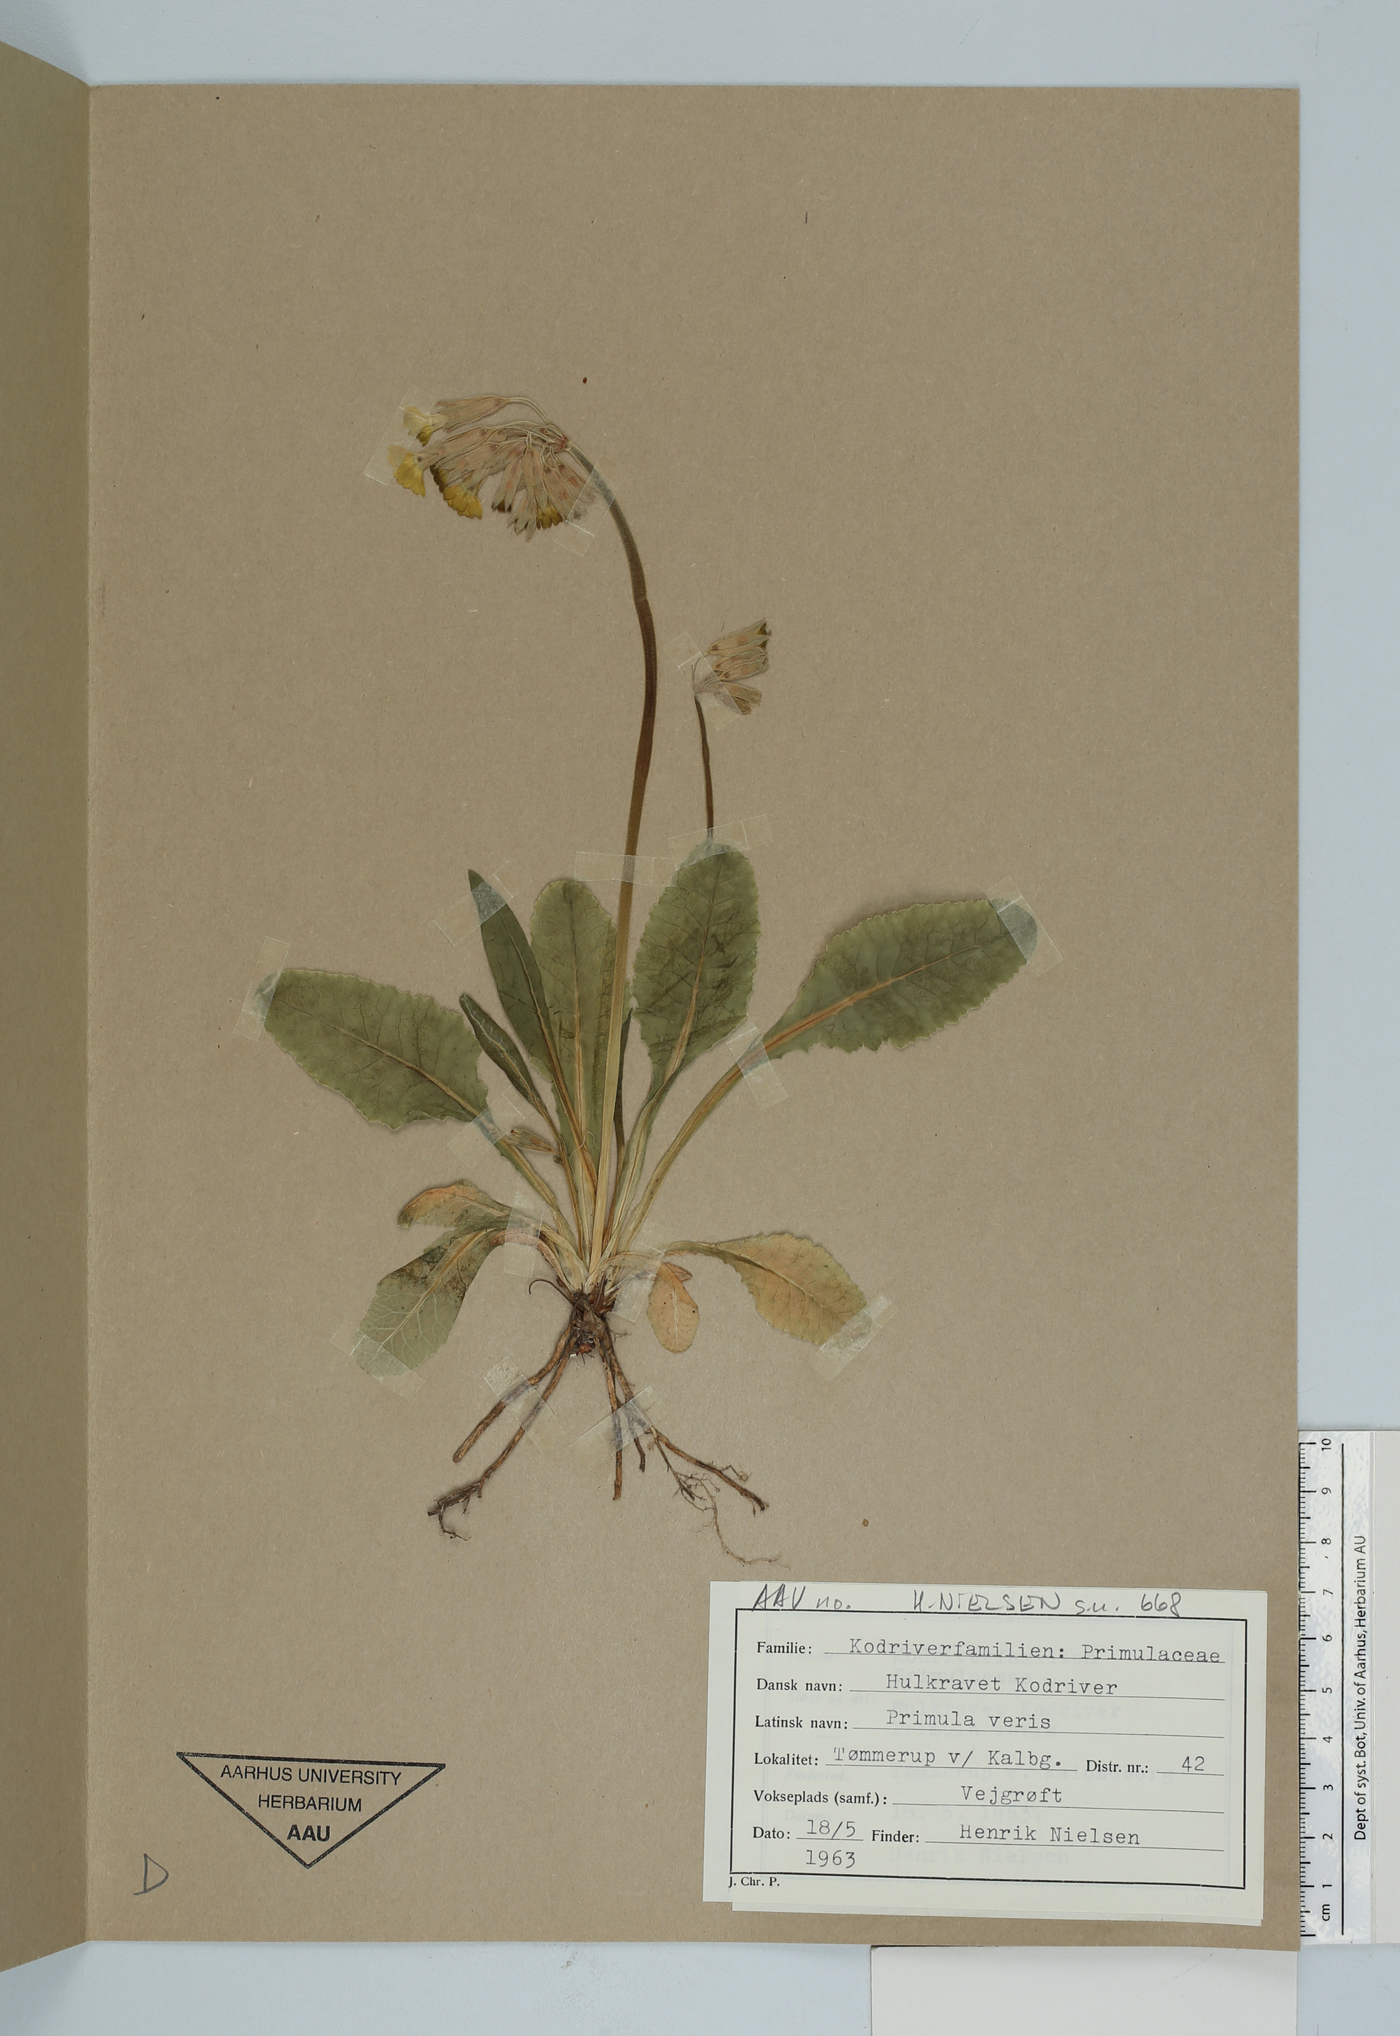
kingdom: Plantae
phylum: Tracheophyta
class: Magnoliopsida
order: Ericales
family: Primulaceae
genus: Primula
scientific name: Primula veris
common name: Cowslip
